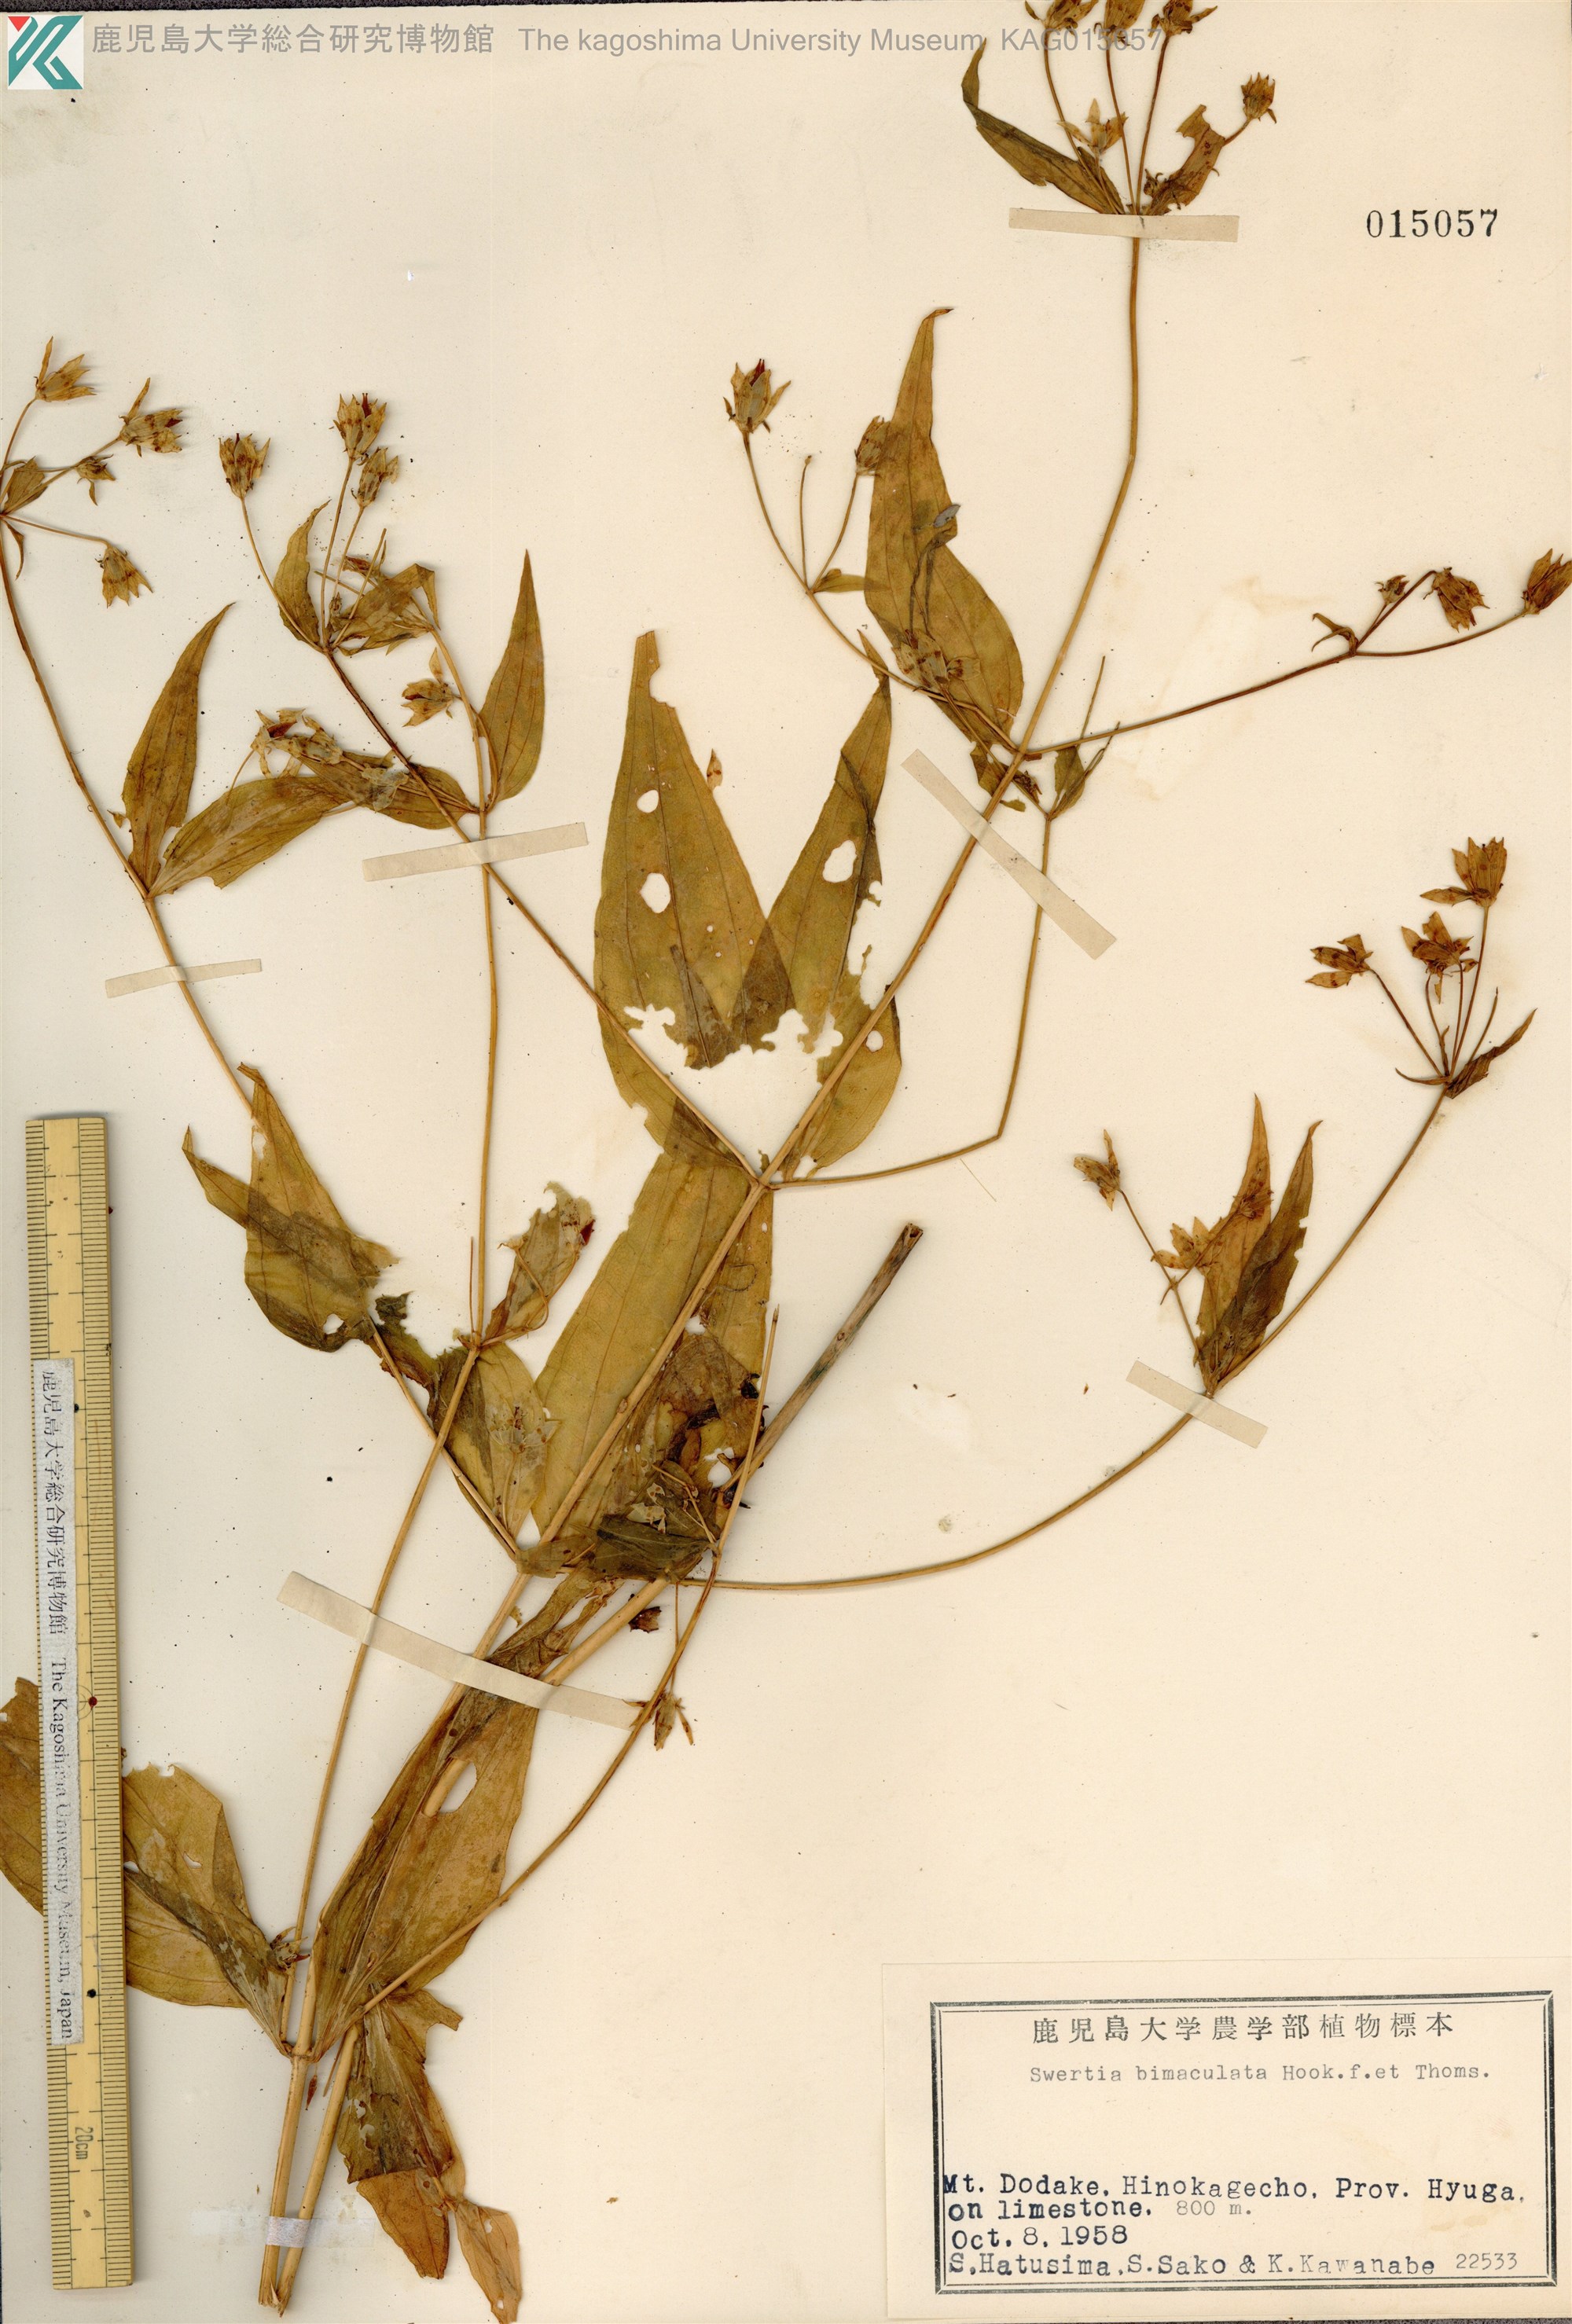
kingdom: Plantae
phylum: Tracheophyta
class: Magnoliopsida
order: Gentianales
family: Gentianaceae
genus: Swertia
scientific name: Swertia bimaculata
